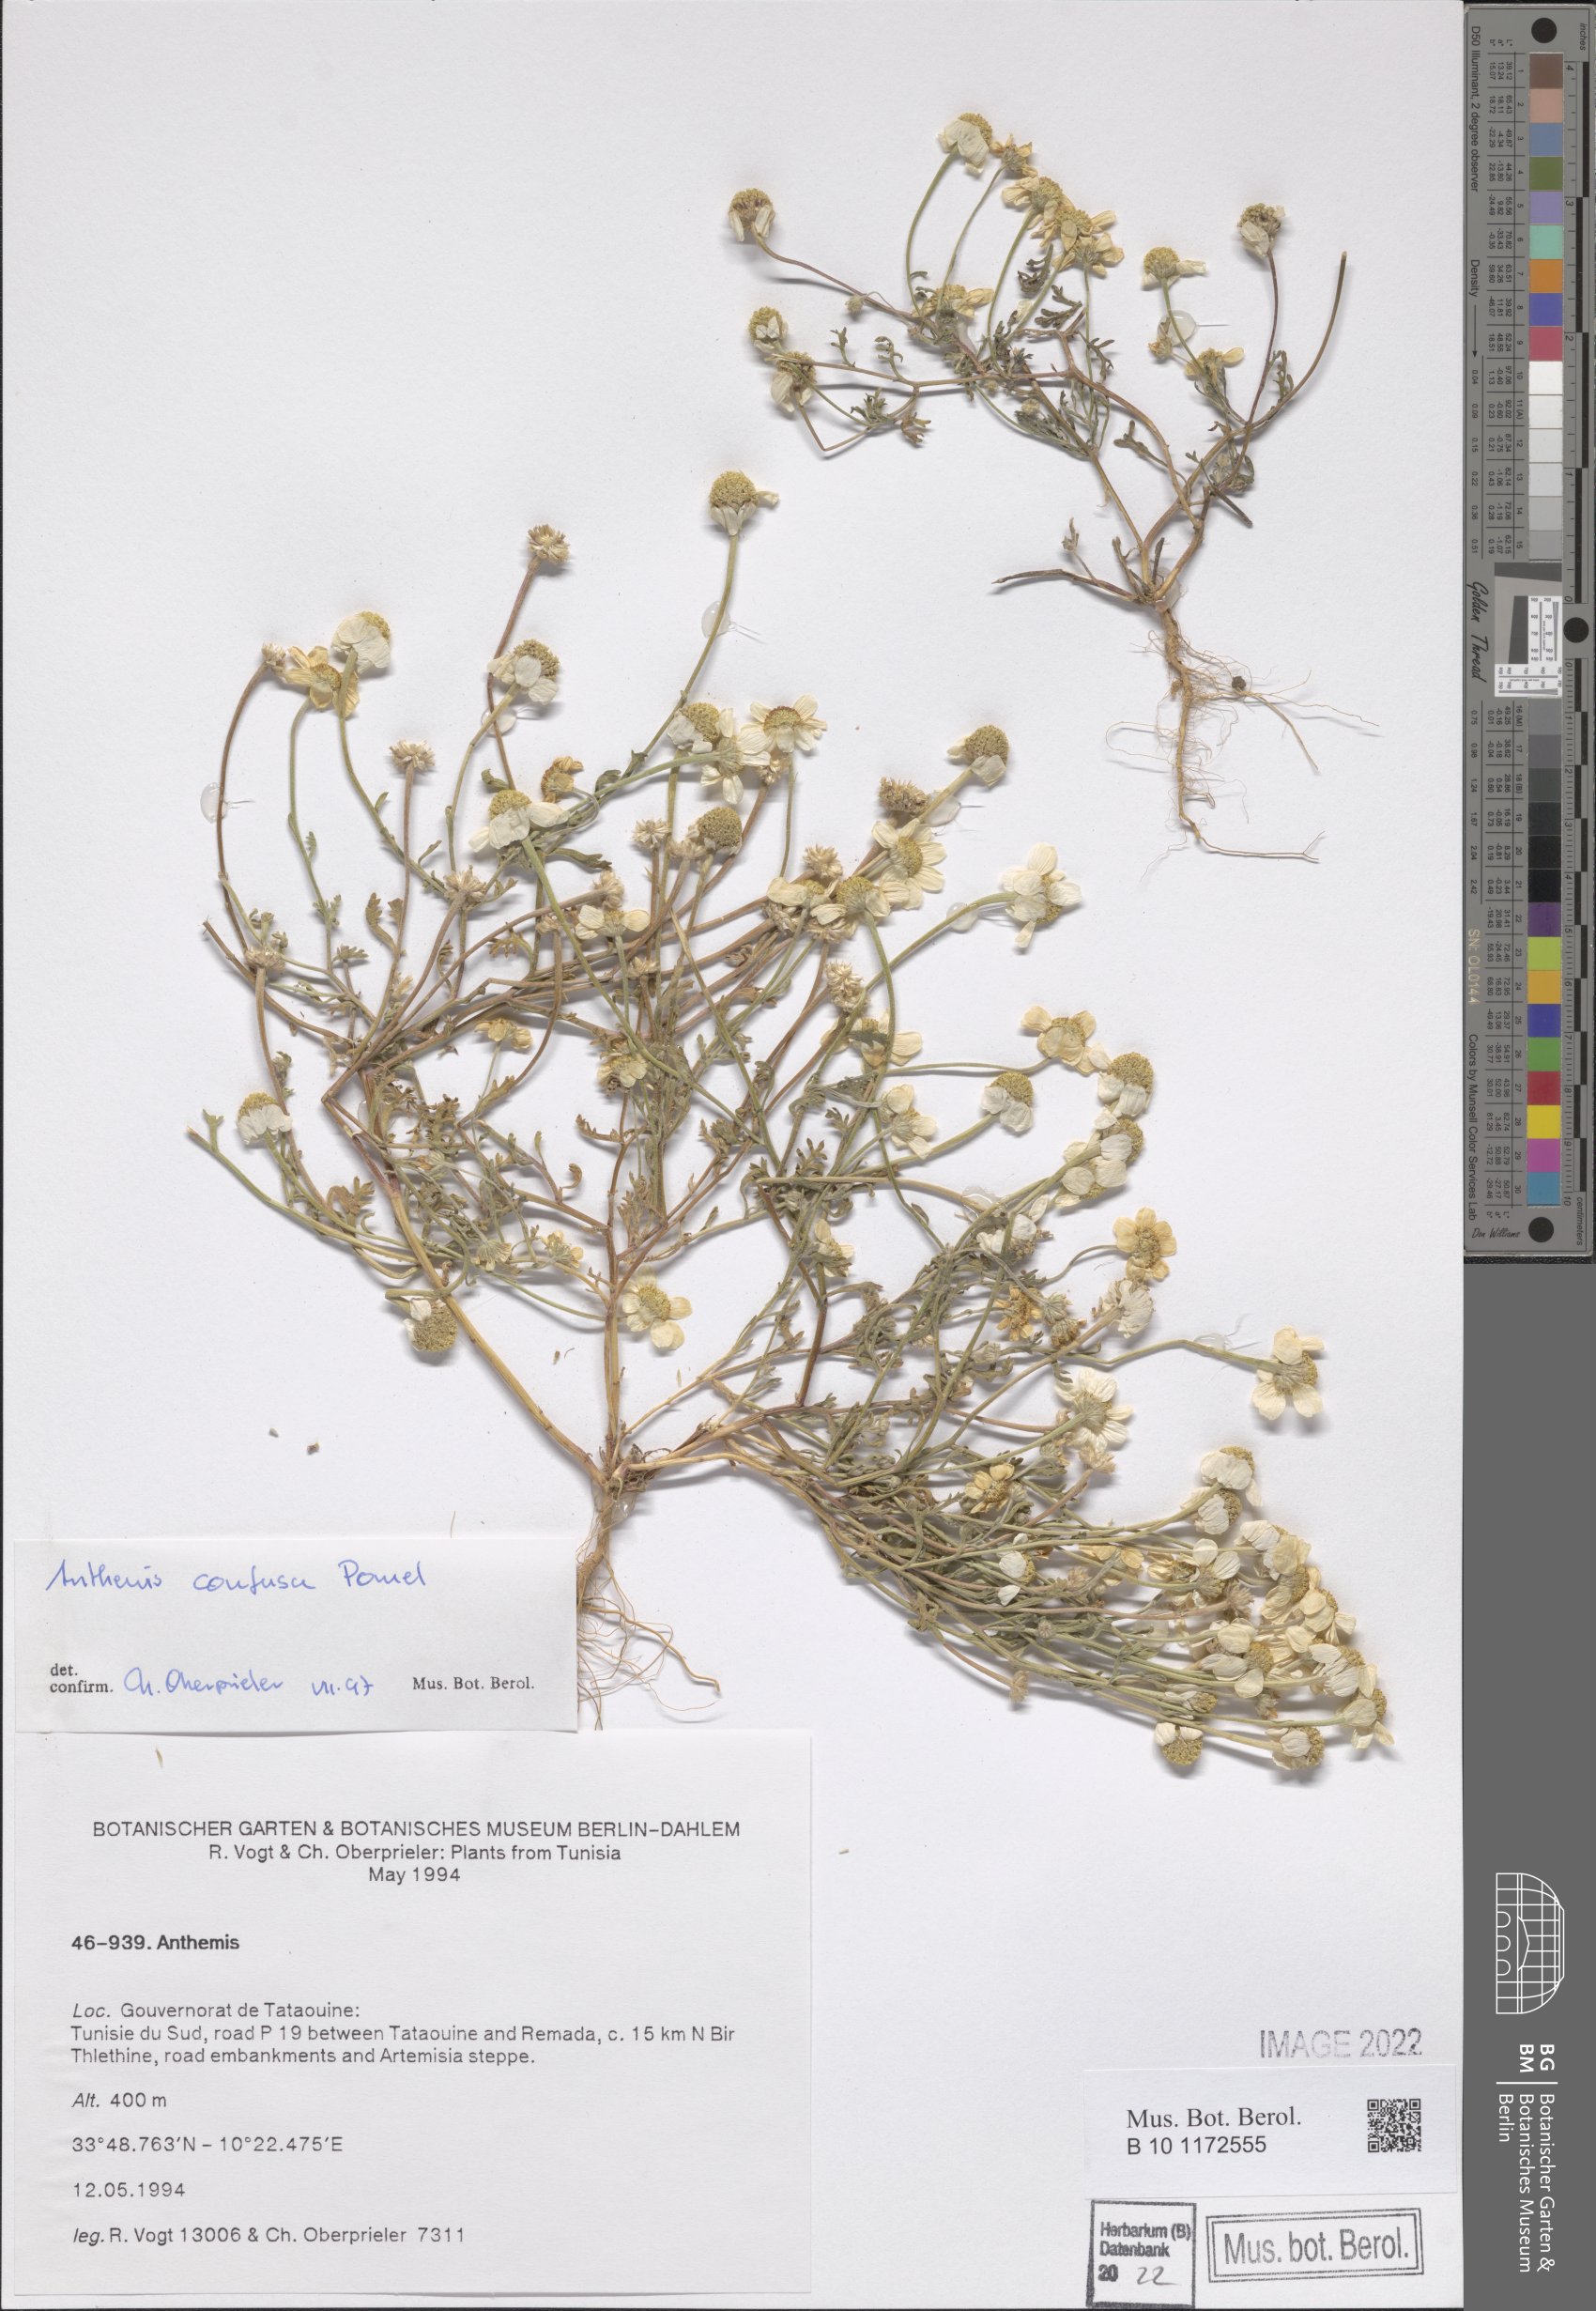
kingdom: Plantae
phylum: Tracheophyta
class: Magnoliopsida
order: Asterales
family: Asteraceae
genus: Anthemis
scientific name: Anthemis confusa
